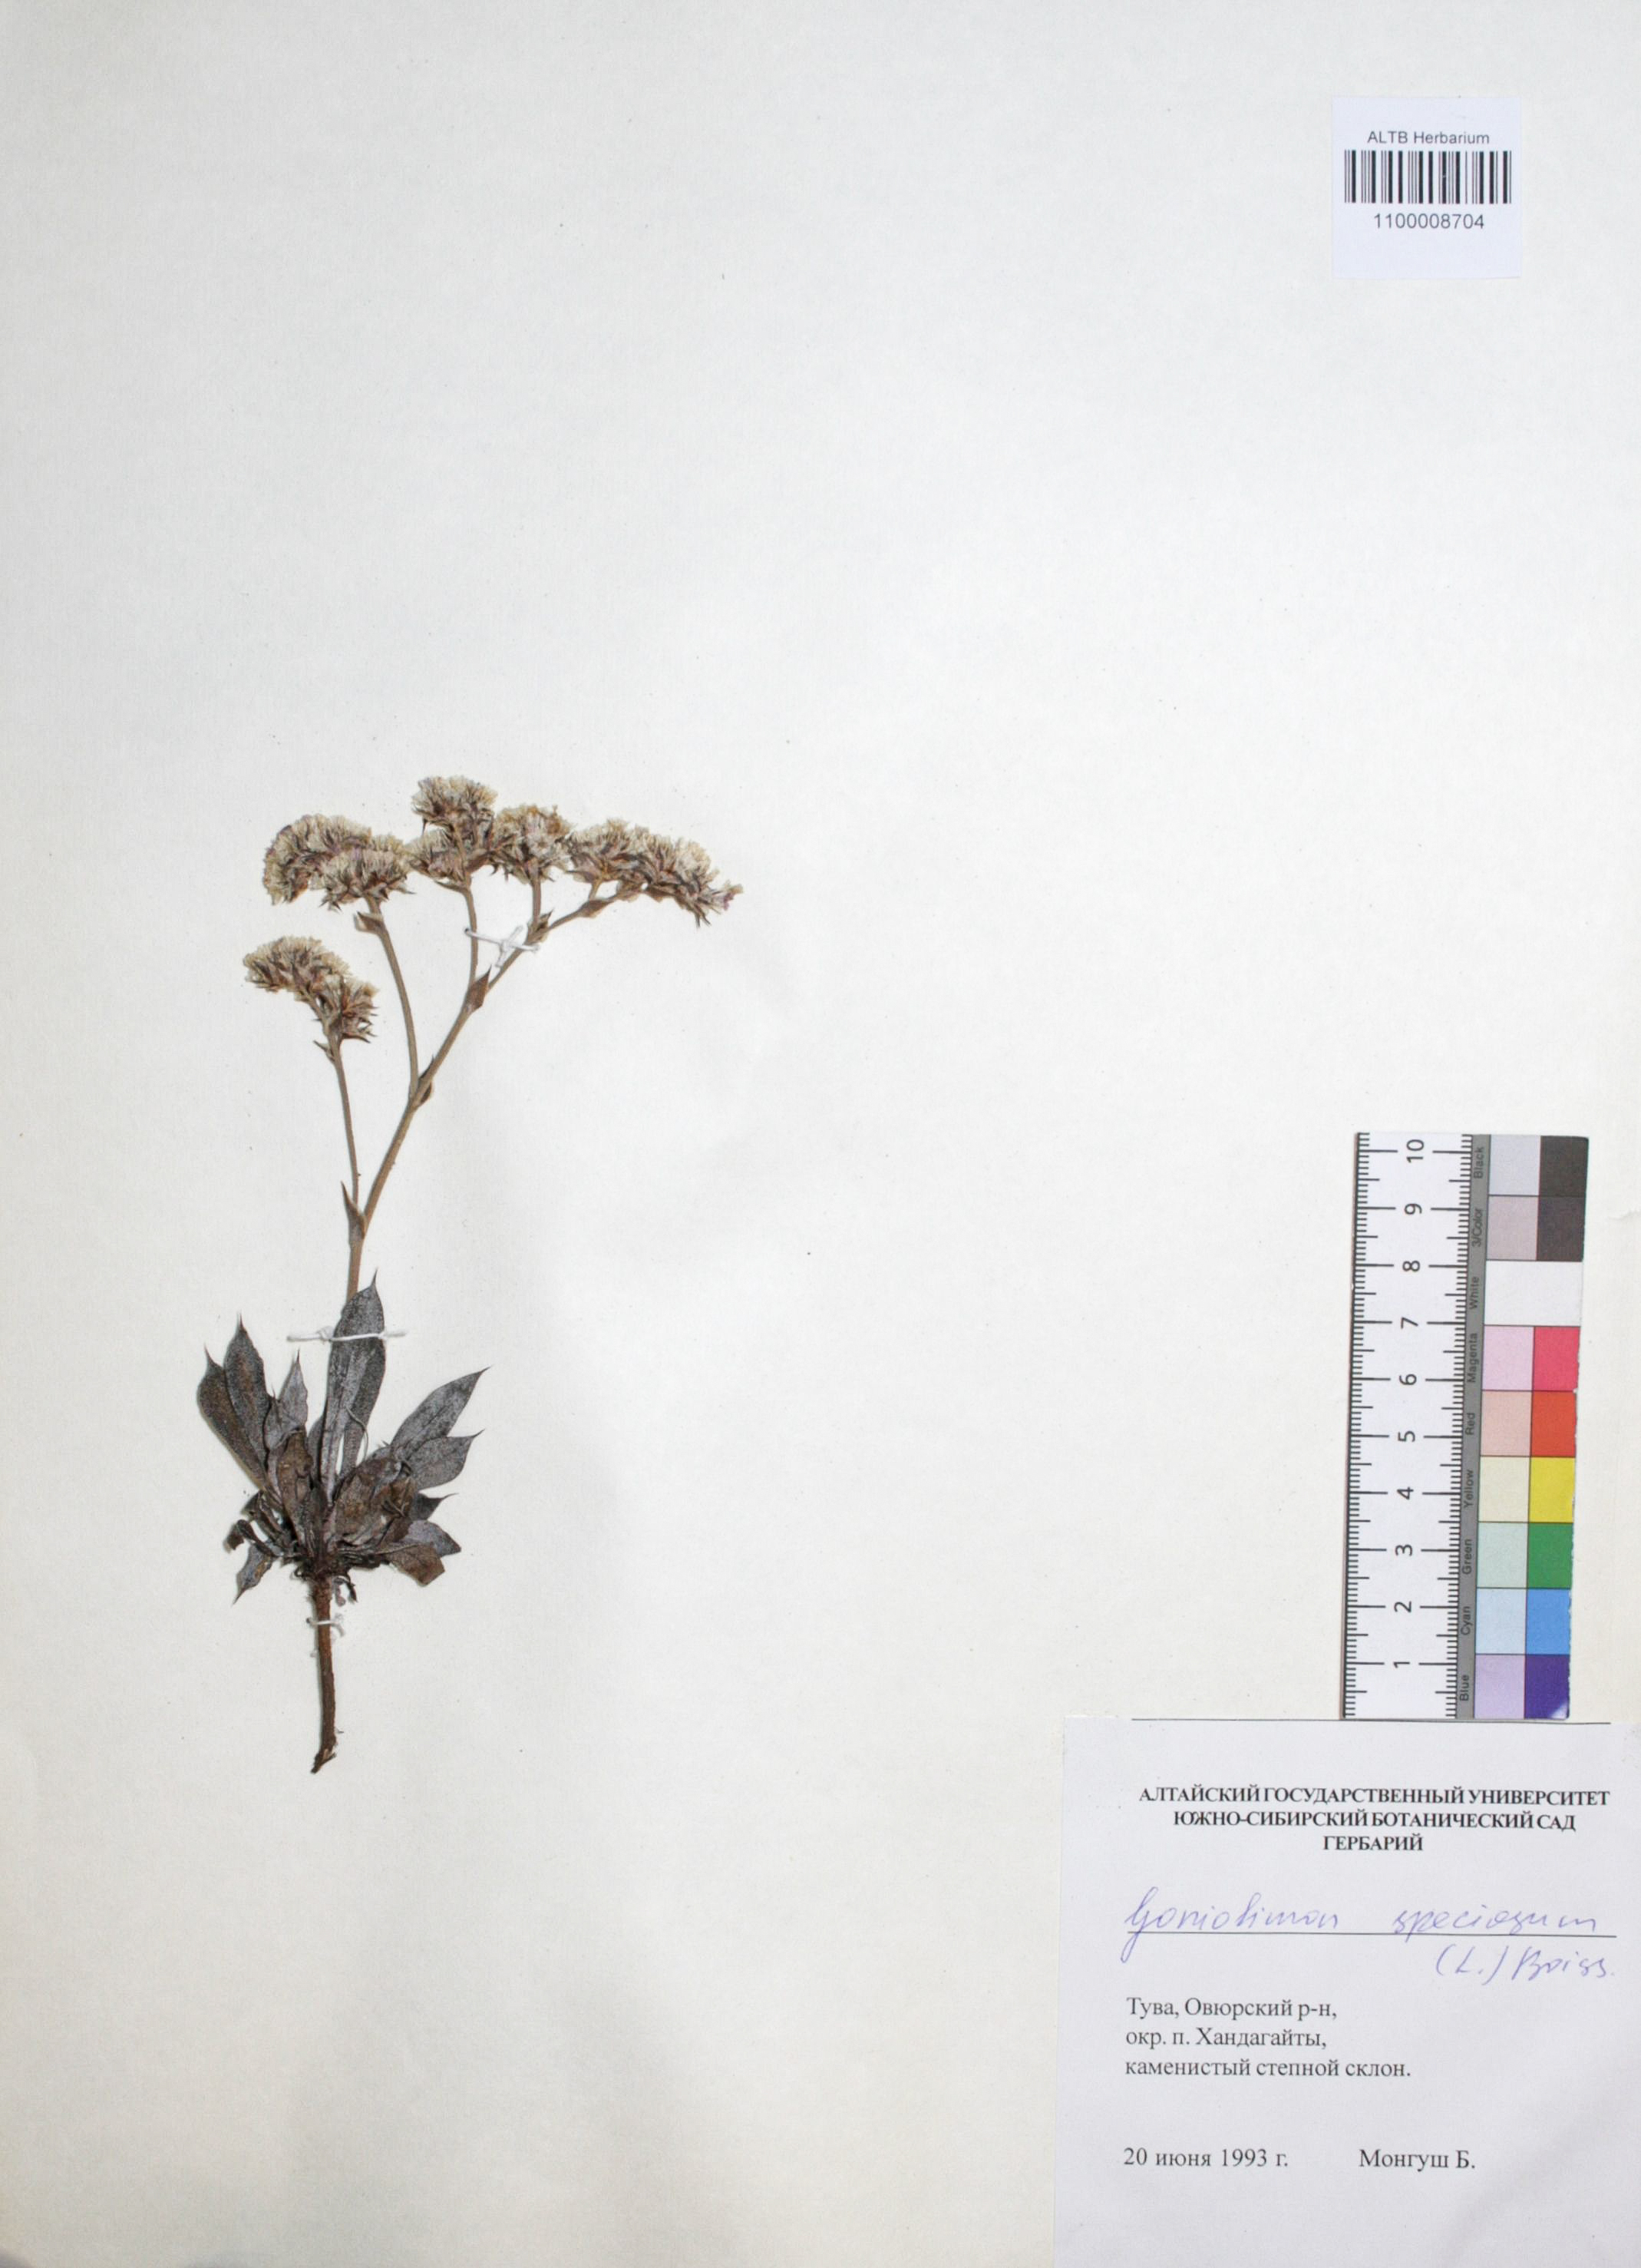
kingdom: Plantae
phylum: Tracheophyta
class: Magnoliopsida
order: Caryophyllales
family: Plumbaginaceae
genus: Goniolimon
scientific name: Goniolimon speciosum
